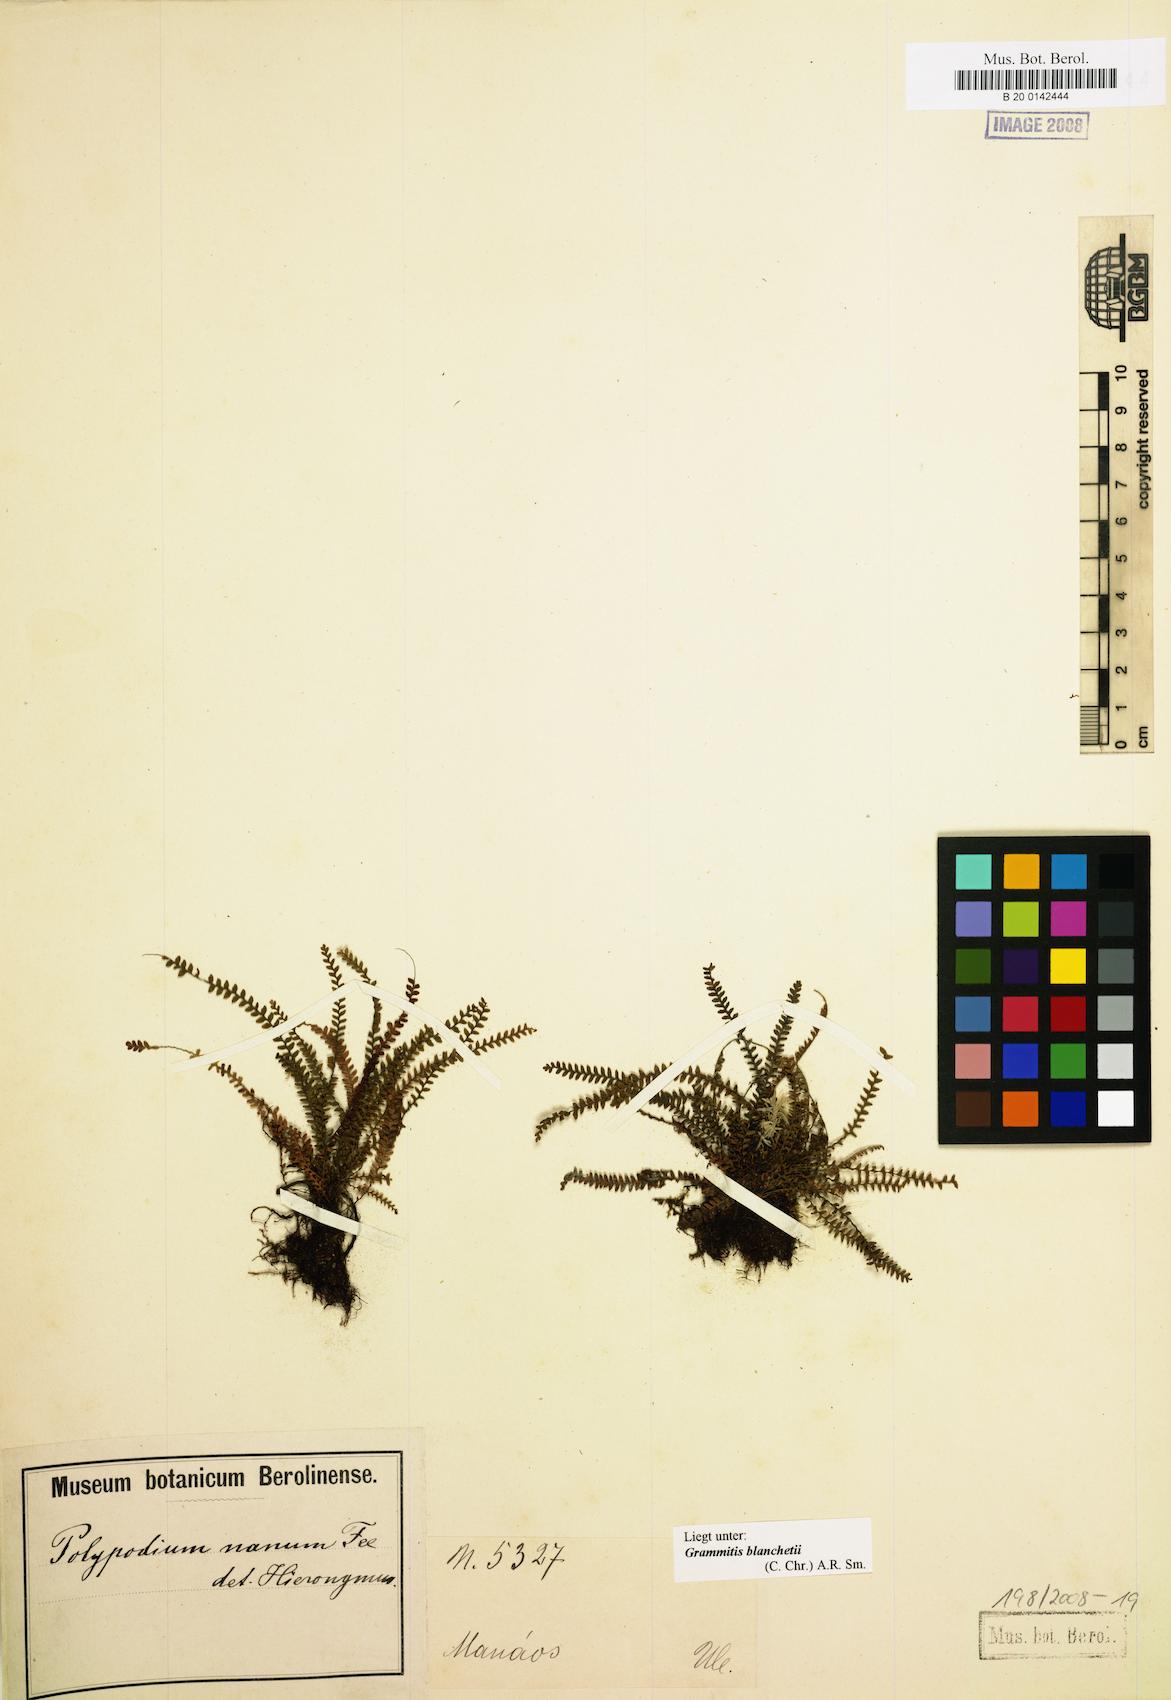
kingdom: Plantae
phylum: Tracheophyta
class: Polypodiopsida
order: Polypodiales
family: Polypodiaceae
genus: Moranopteris
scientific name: Moranopteris nana
